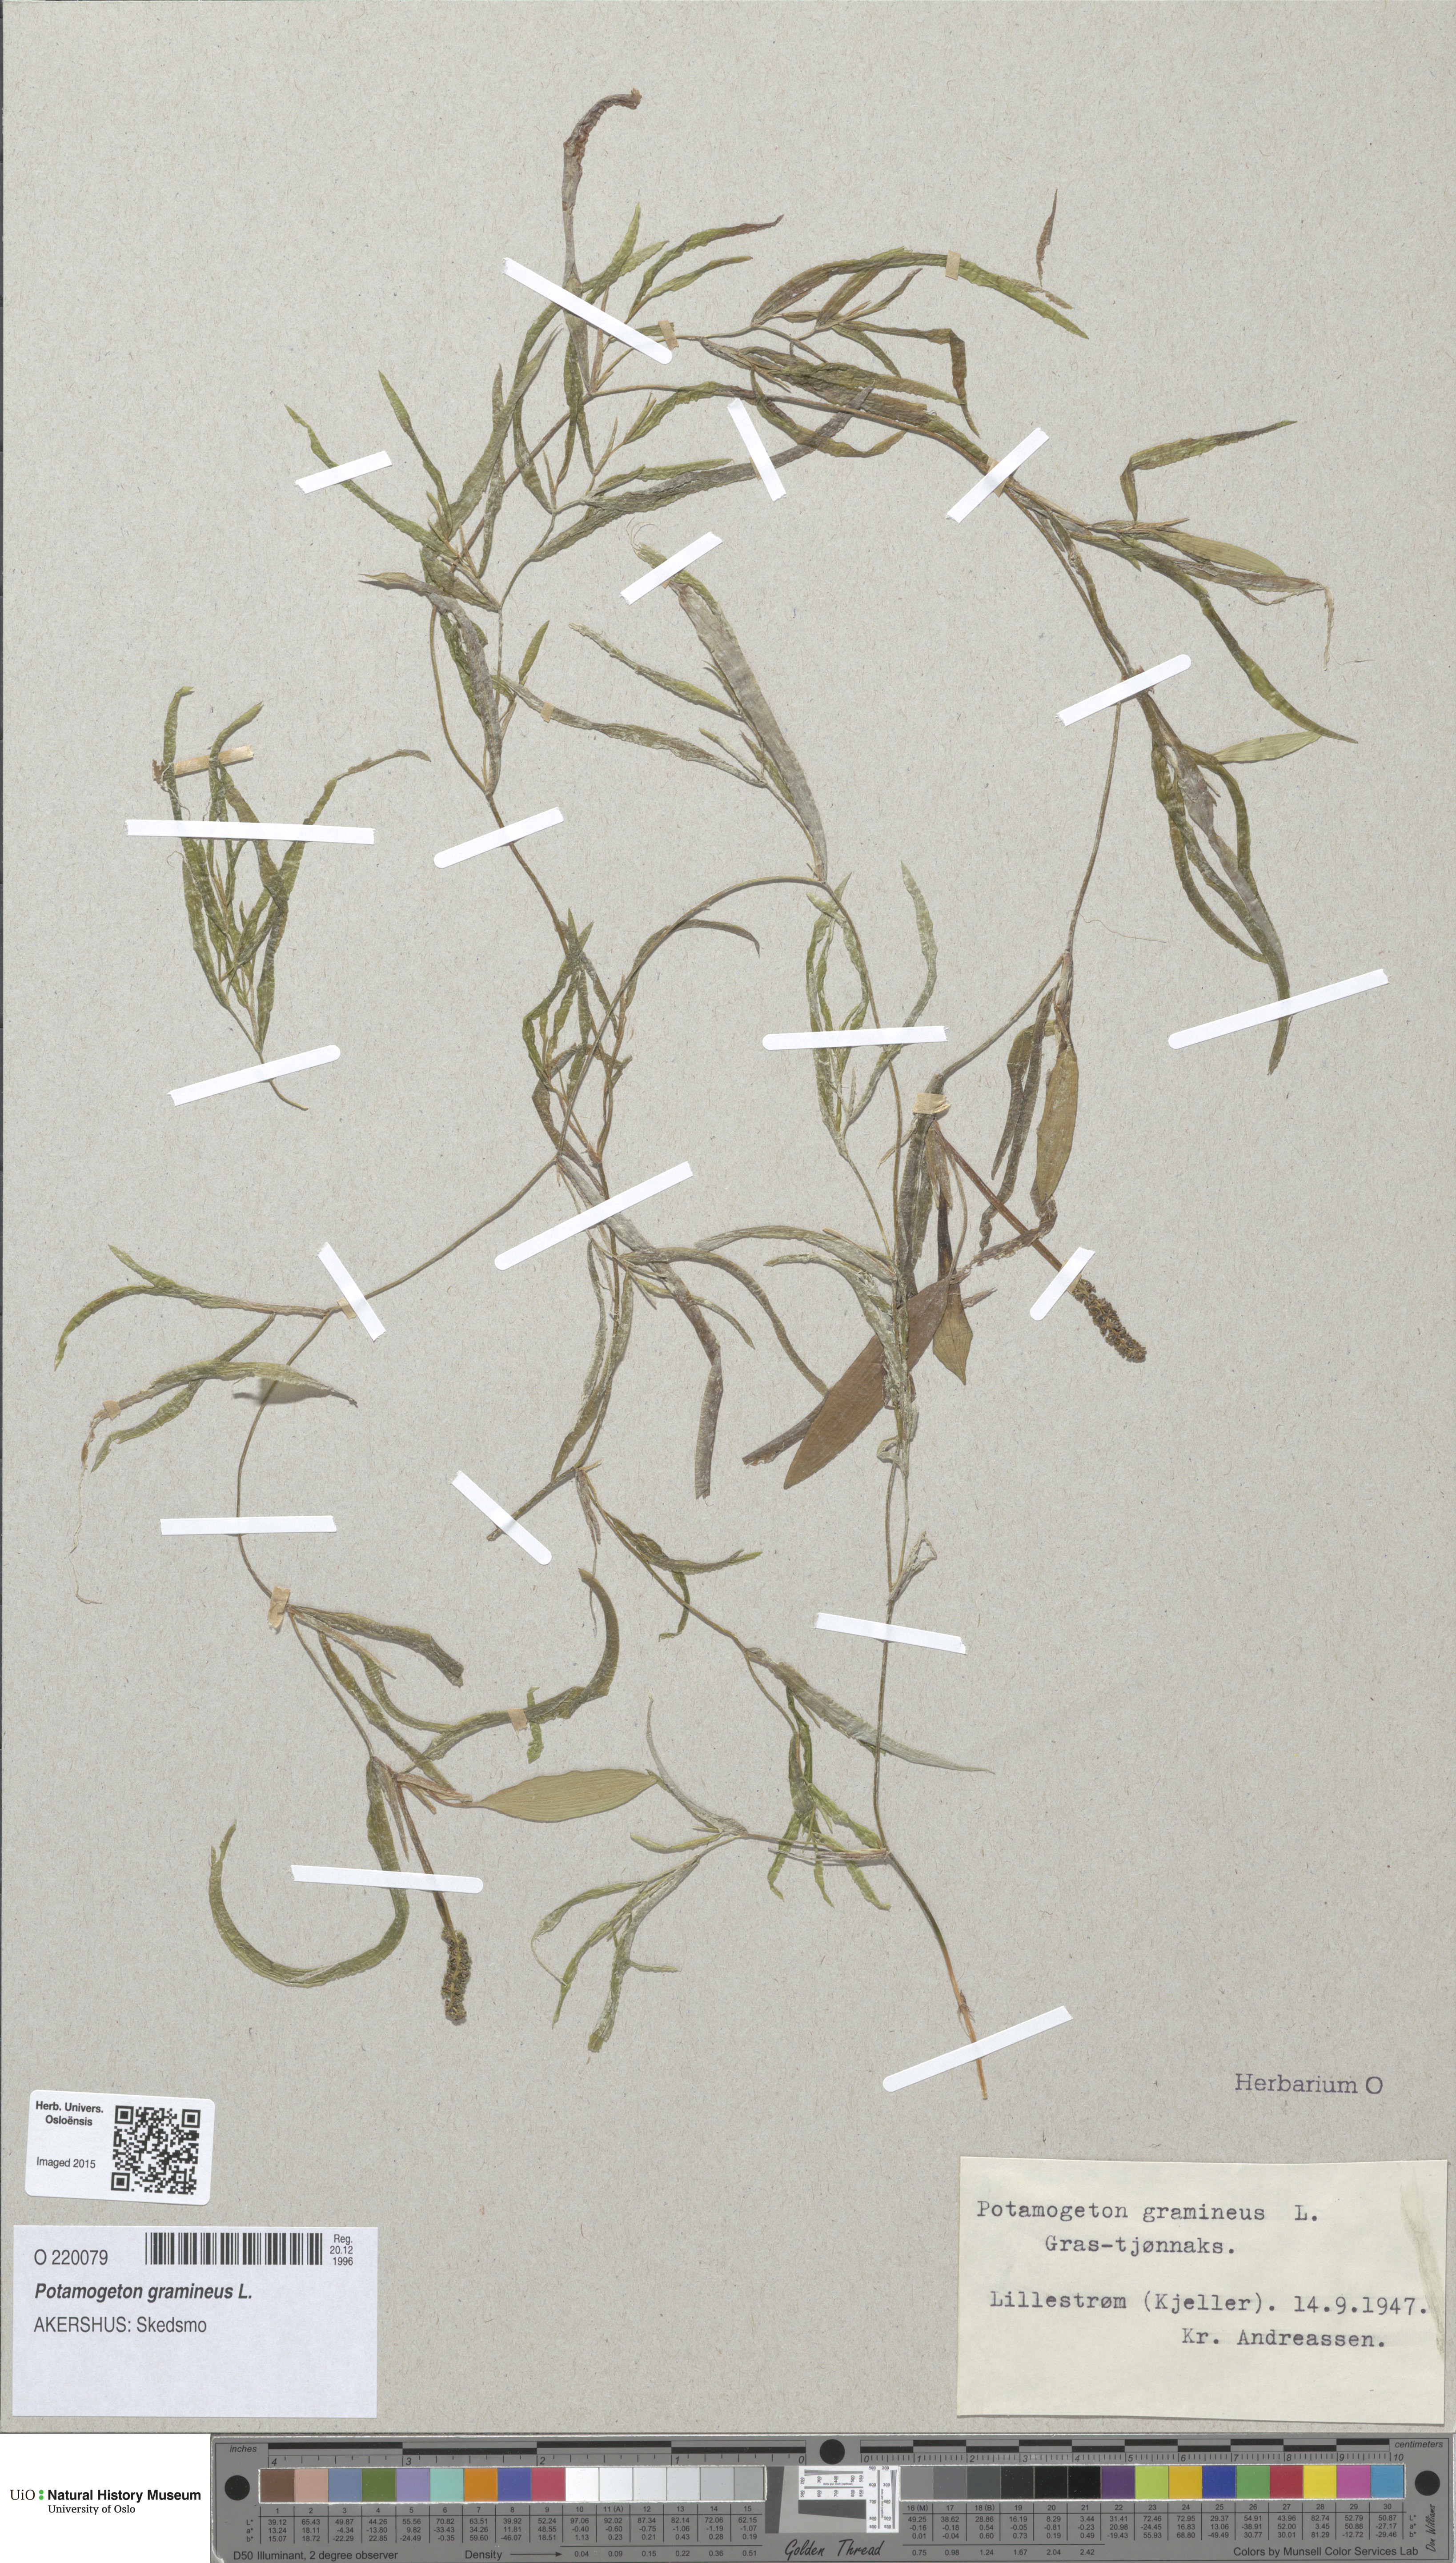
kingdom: Plantae
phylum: Tracheophyta
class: Liliopsida
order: Alismatales
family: Potamogetonaceae
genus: Potamogeton
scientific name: Potamogeton gramineus
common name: Various-leaved pondweed
